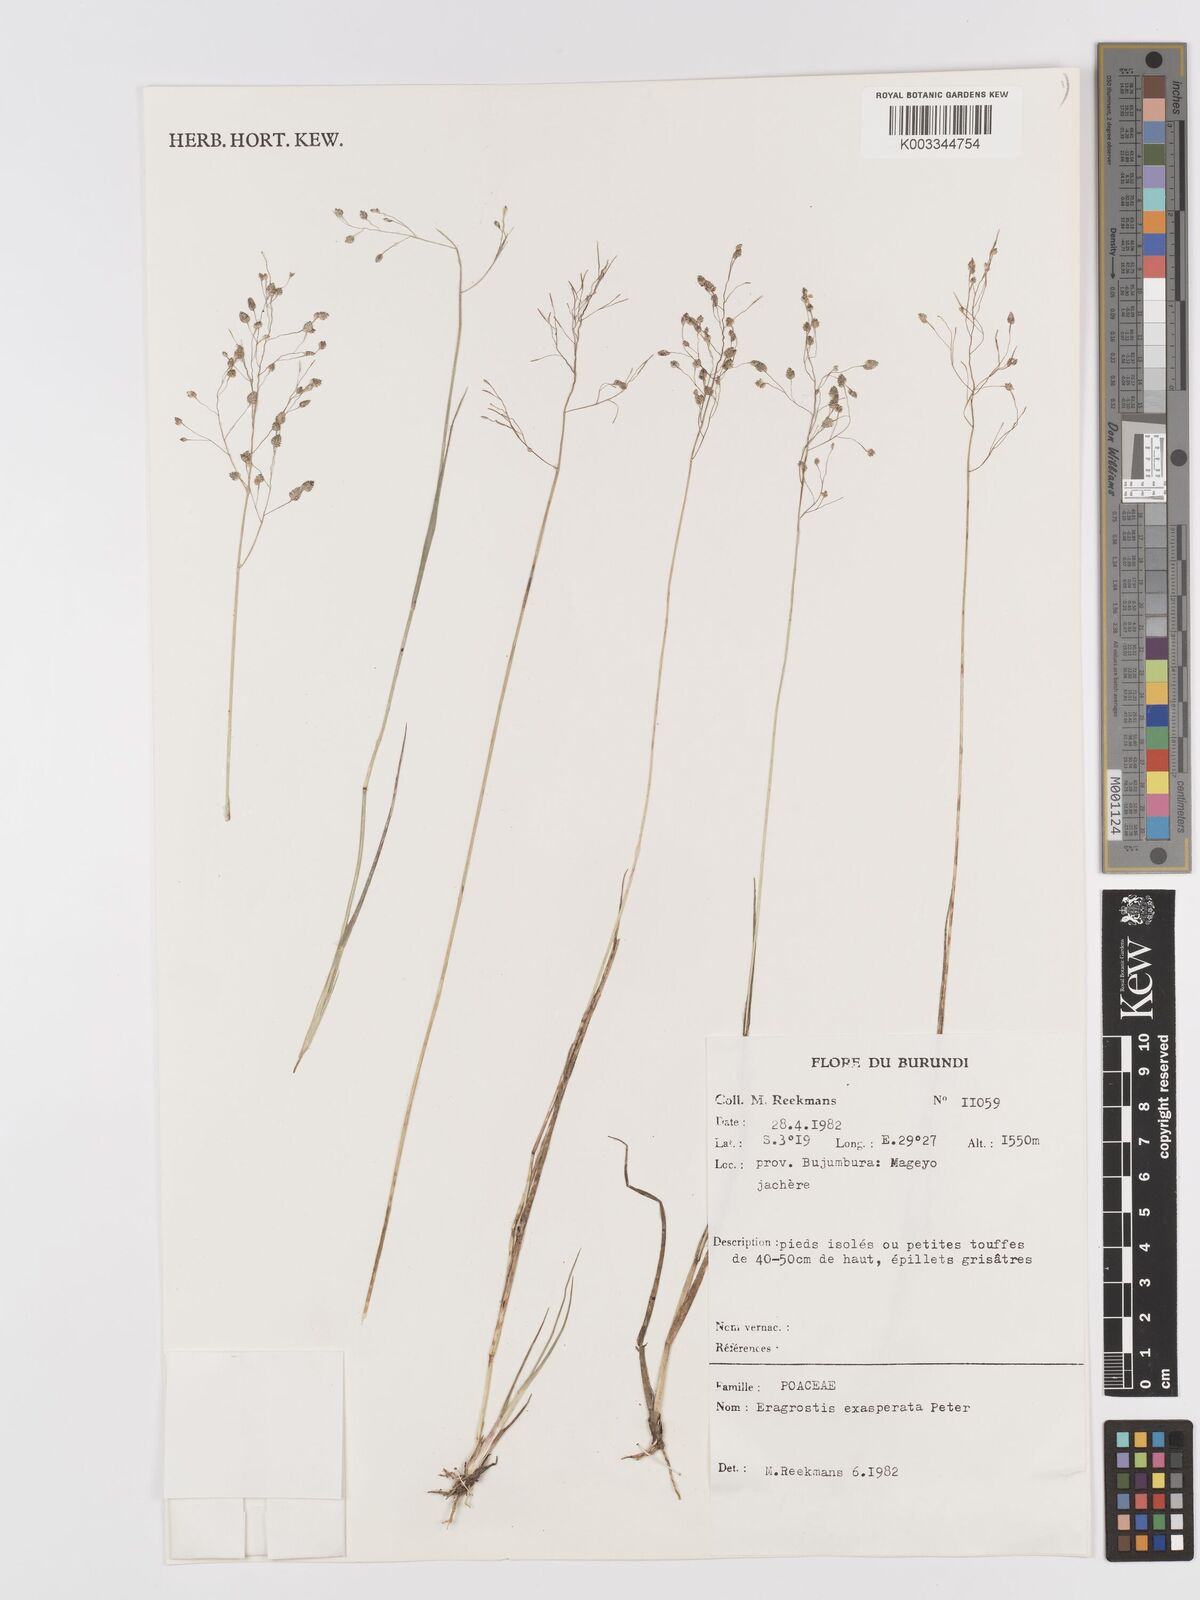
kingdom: Plantae
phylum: Tracheophyta
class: Liliopsida
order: Poales
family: Poaceae
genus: Eragrostis
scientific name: Eragrostis exasperata
